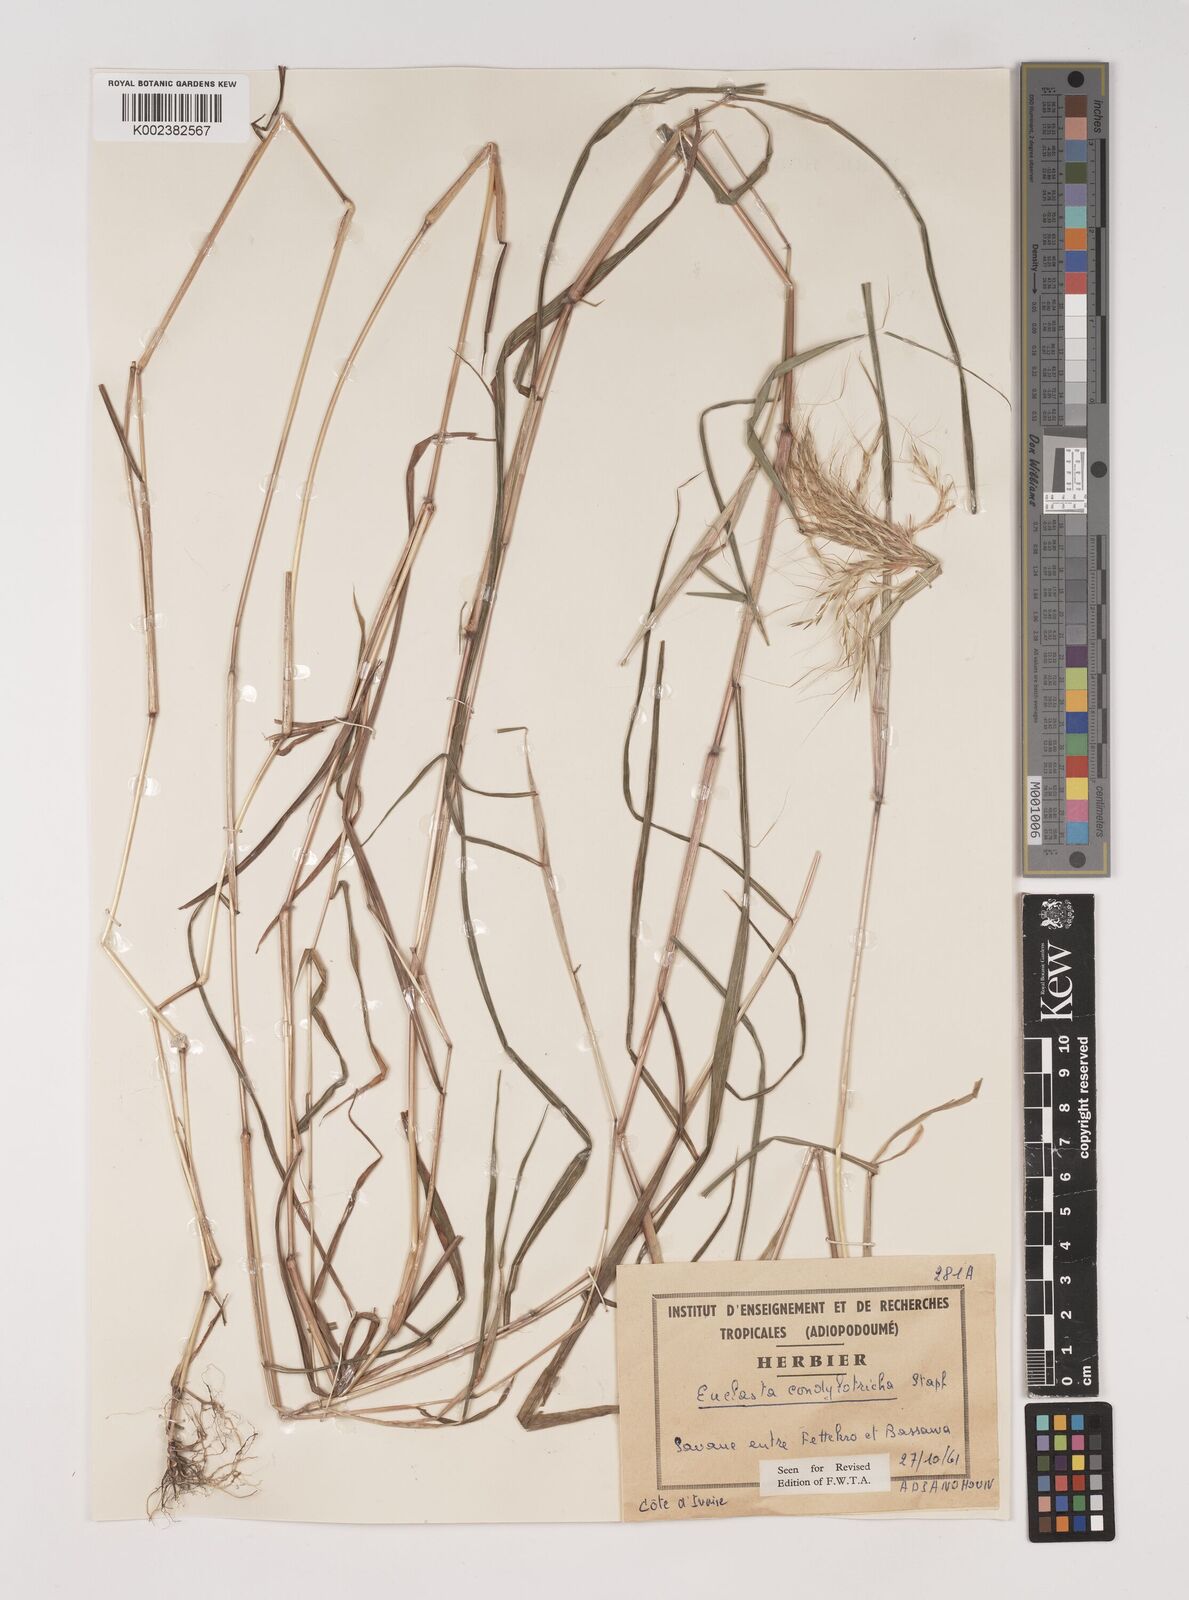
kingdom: Plantae
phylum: Tracheophyta
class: Liliopsida
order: Poales
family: Poaceae
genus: Euclasta
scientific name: Euclasta condylotricha
